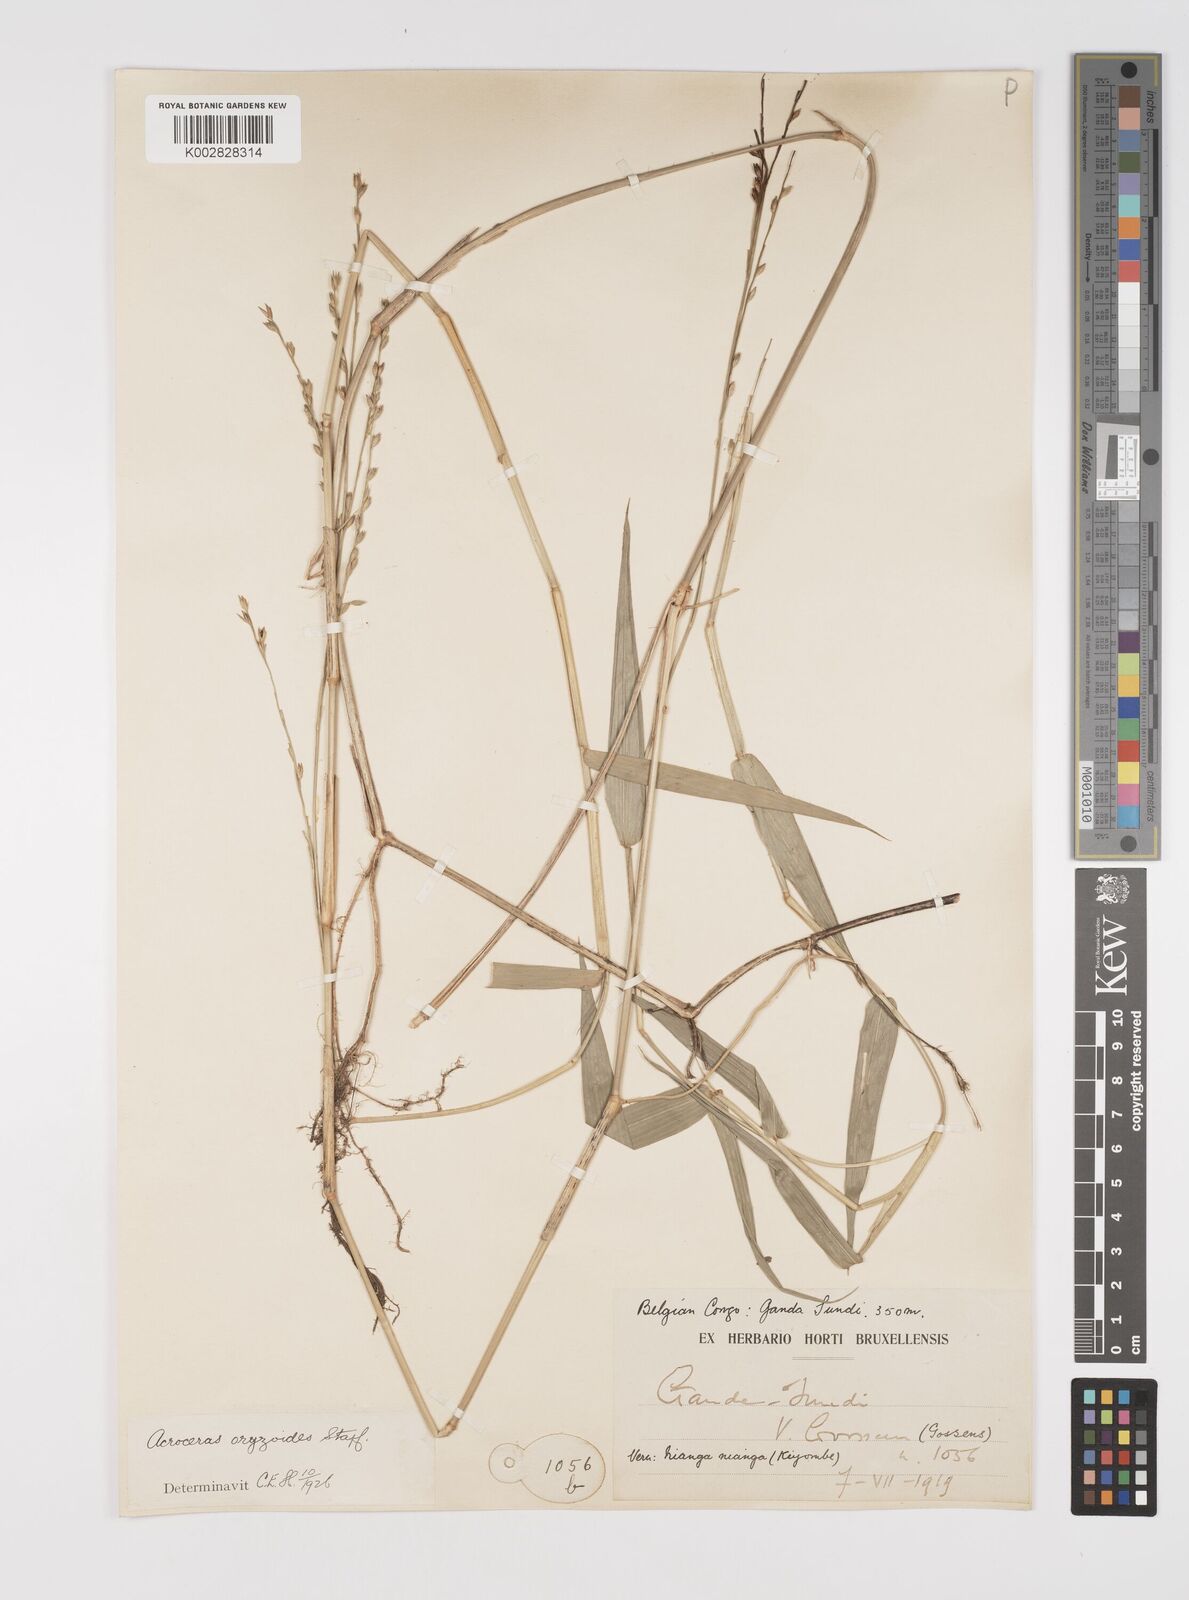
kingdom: Plantae
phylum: Tracheophyta
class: Liliopsida
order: Poales
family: Poaceae
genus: Acroceras
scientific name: Acroceras zizanioides
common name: Oat grass
